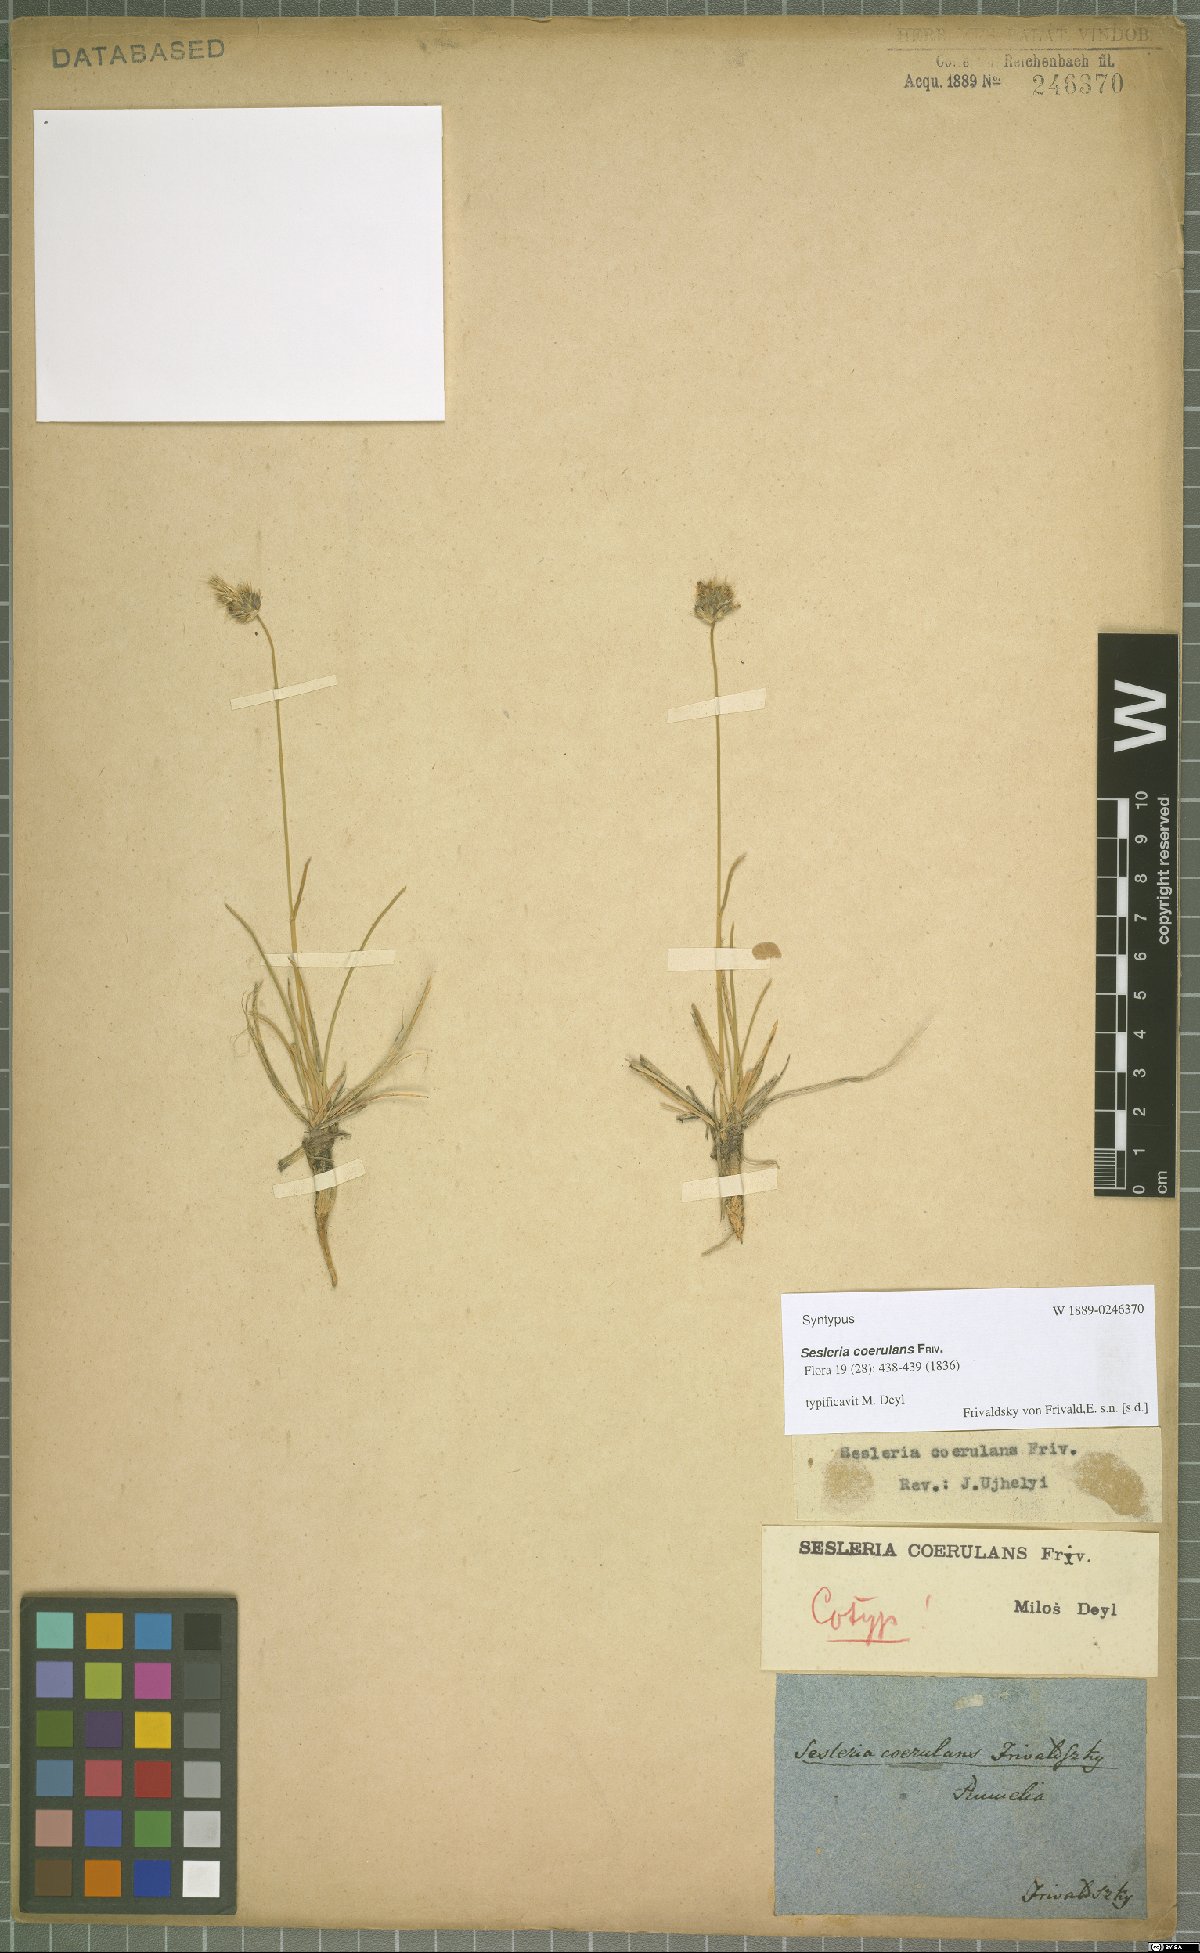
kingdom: Plantae
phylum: Tracheophyta
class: Liliopsida
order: Poales
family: Poaceae
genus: Sesleria
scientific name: Sesleria coerulans
